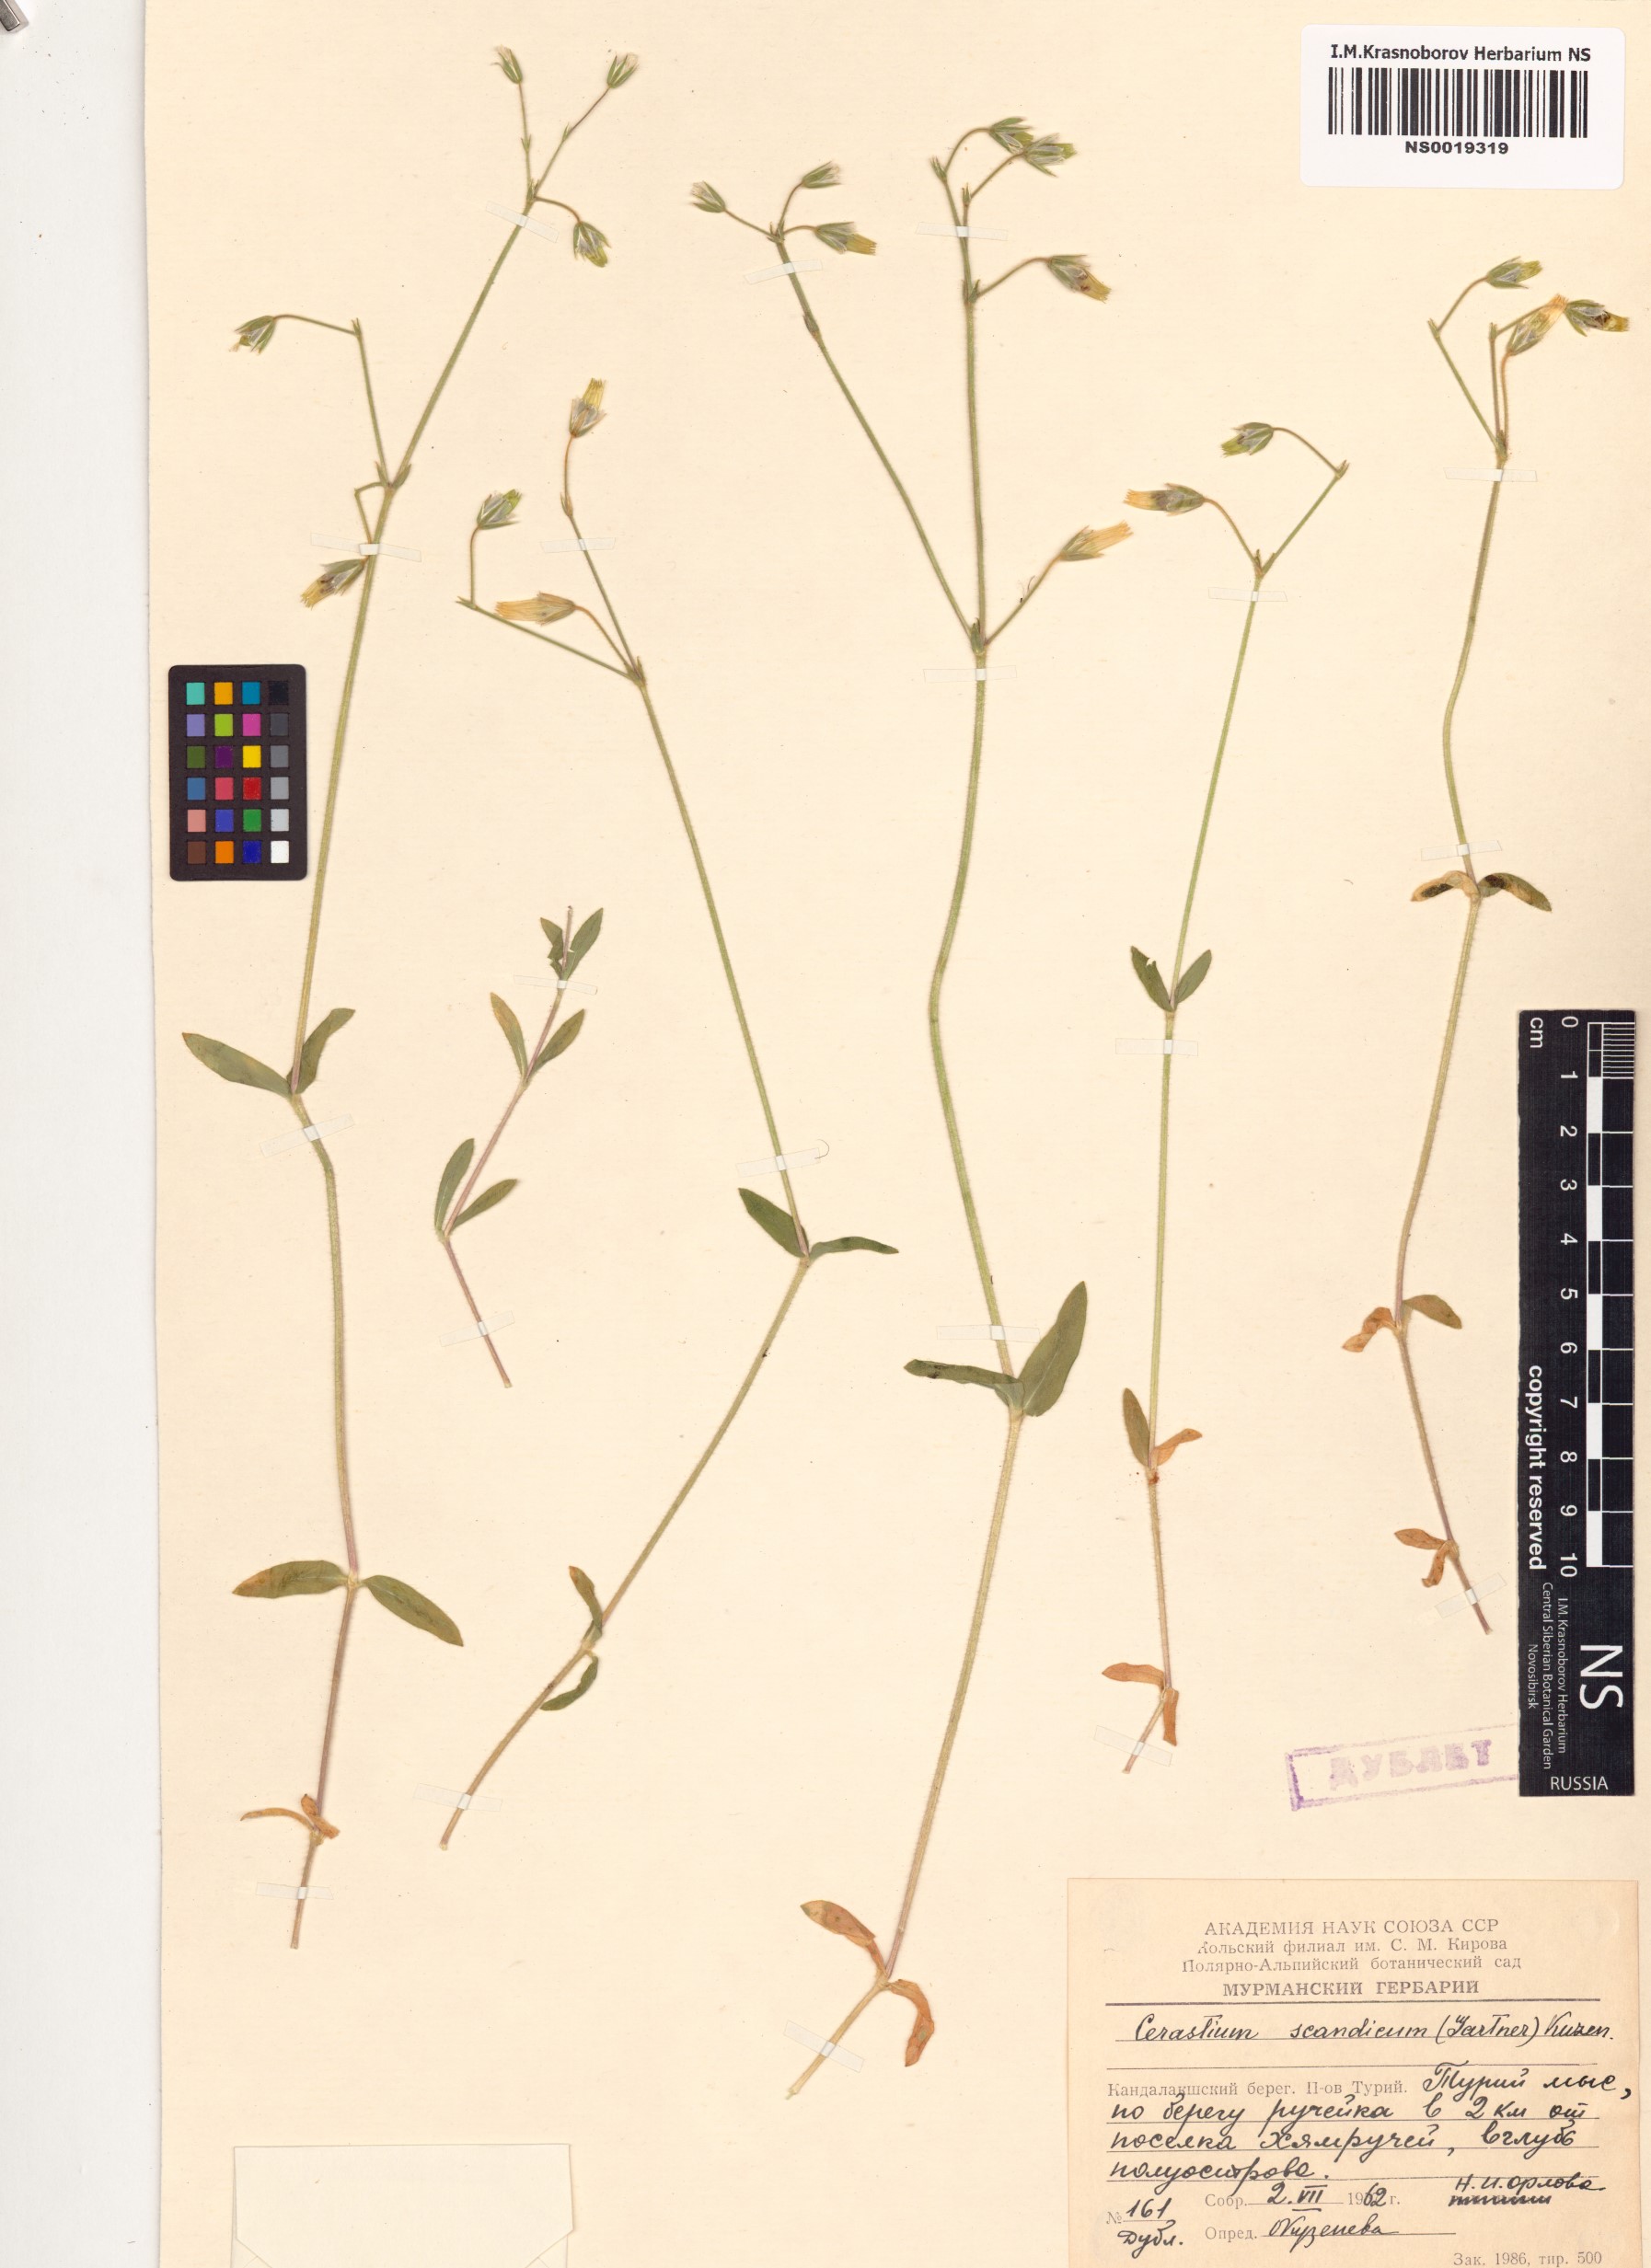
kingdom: Plantae
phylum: Tracheophyta
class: Magnoliopsida
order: Caryophyllales
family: Caryophyllaceae
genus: Cerastium
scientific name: Cerastium holosteoides
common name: Big chickweed
